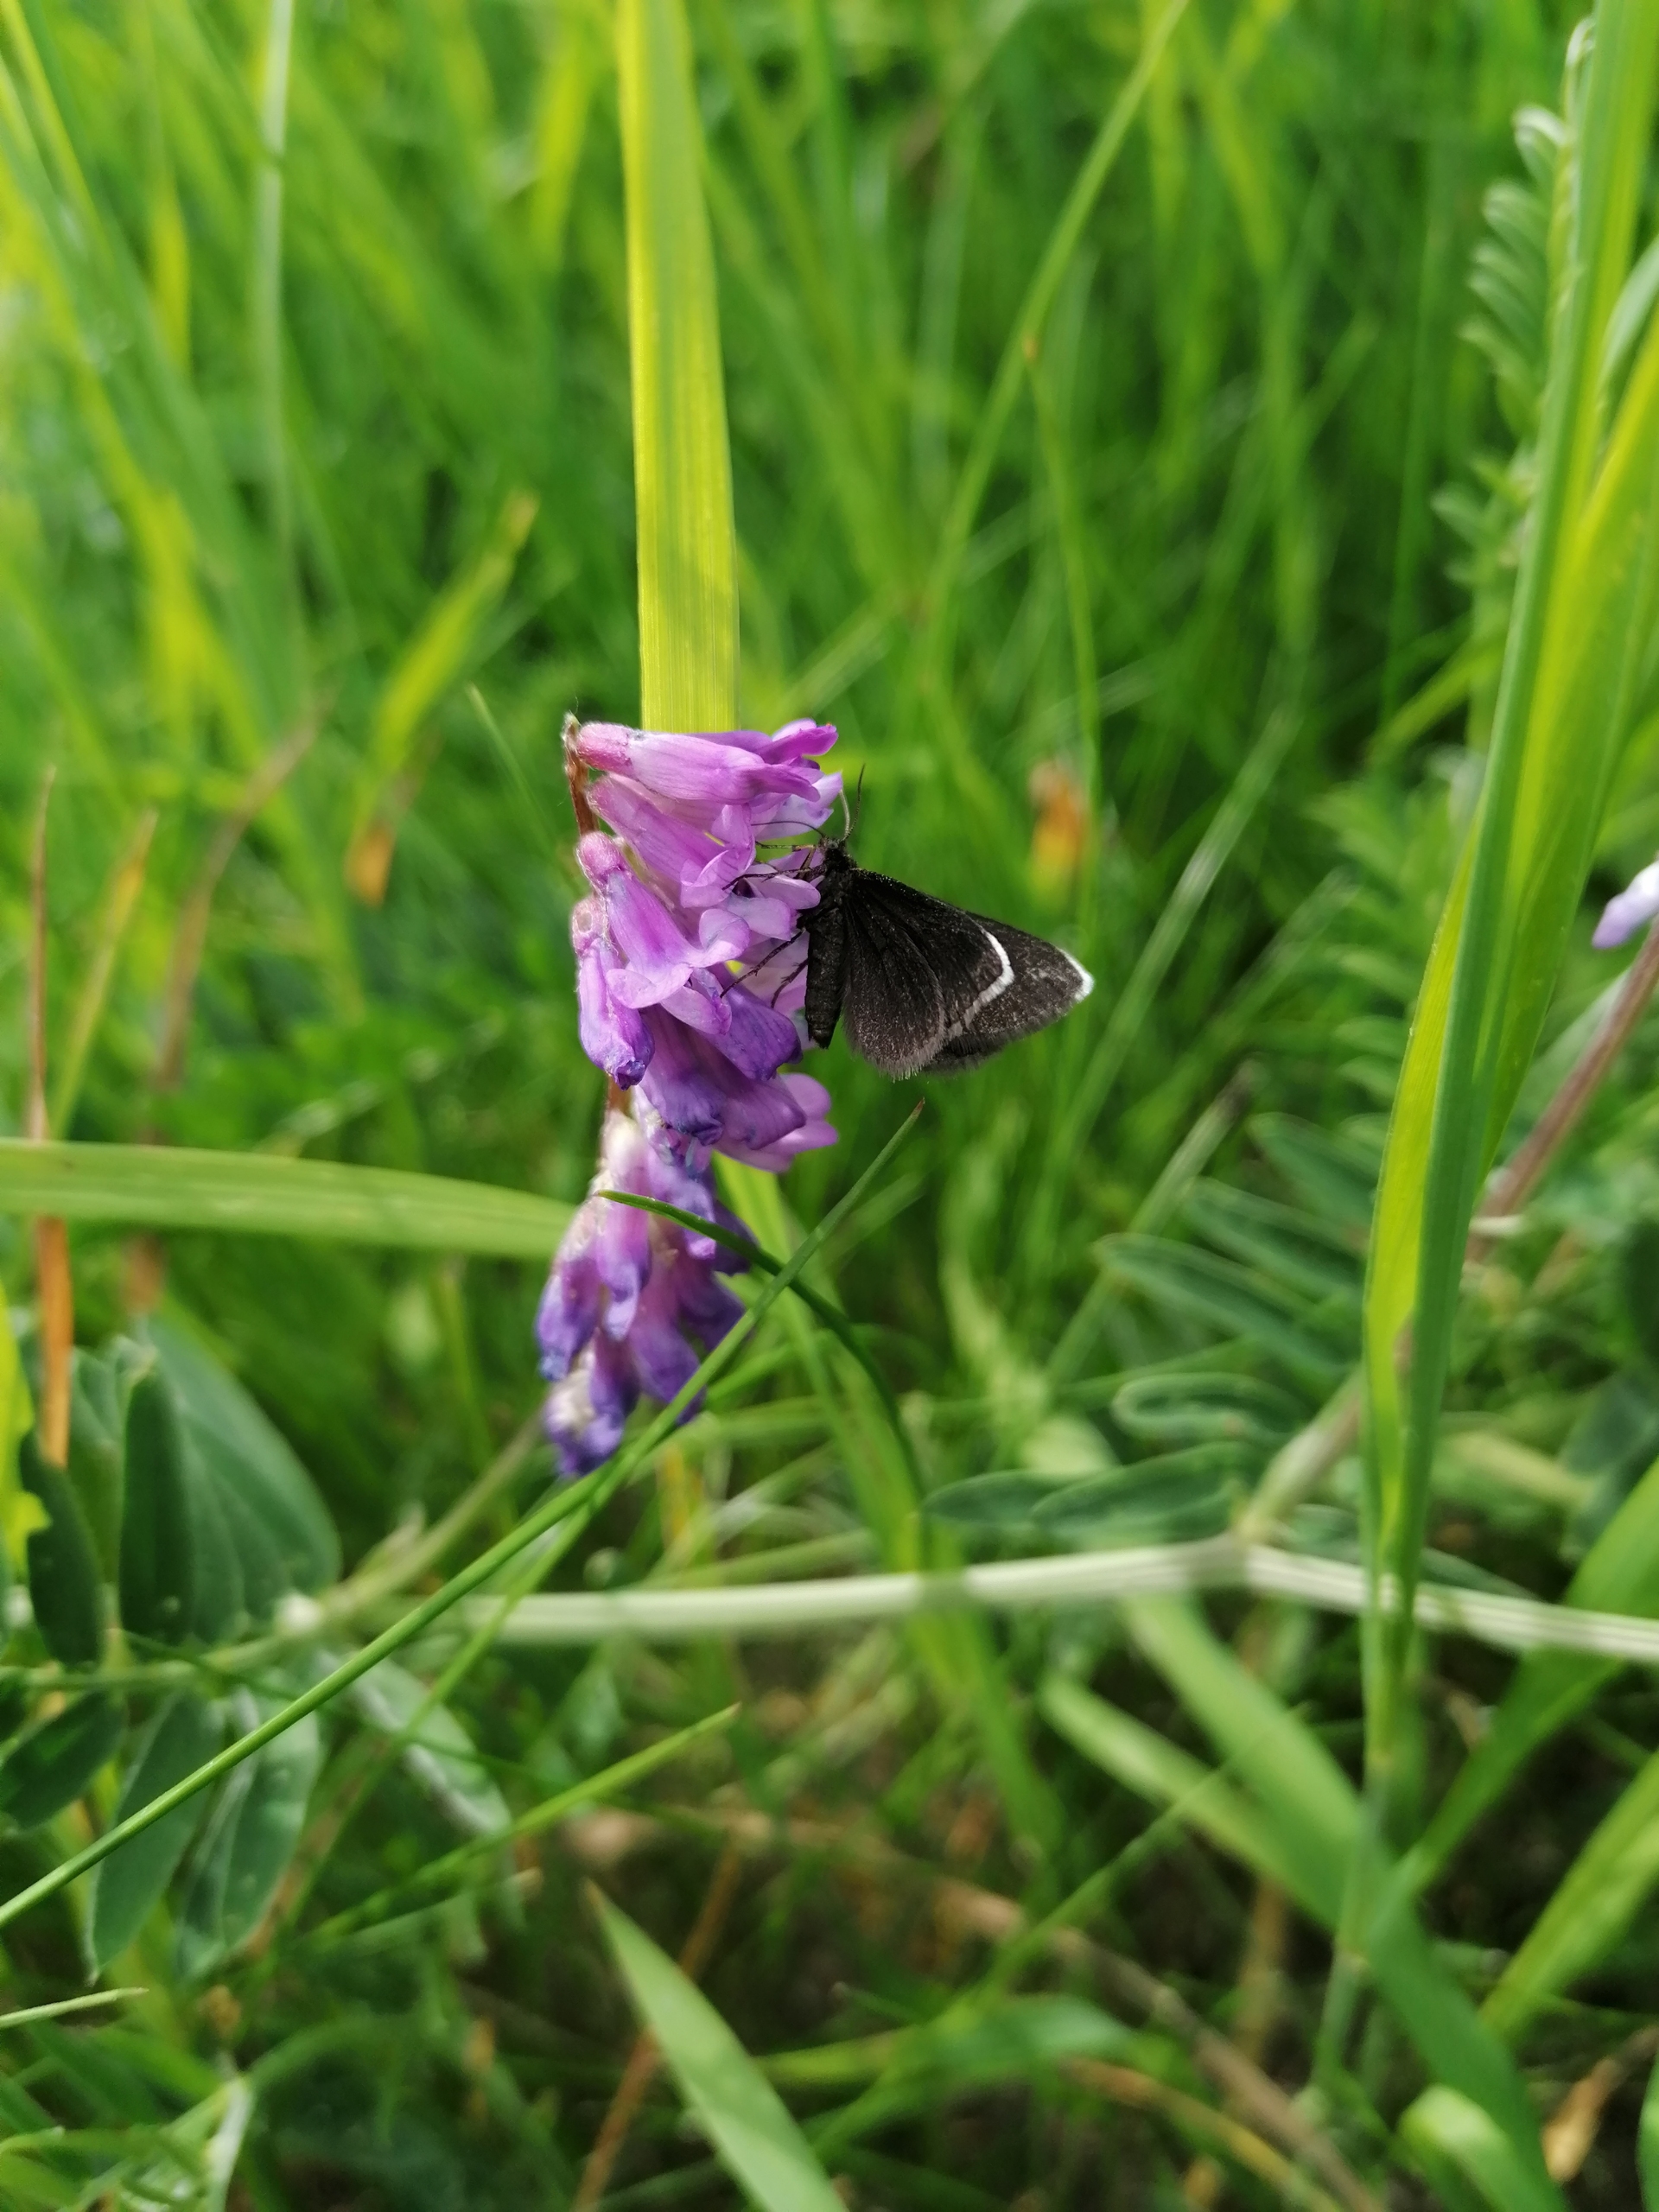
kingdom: Animalia
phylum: Arthropoda
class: Insecta
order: Lepidoptera
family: Geometridae
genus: Odezia
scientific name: Odezia atrata
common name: Sort måler
